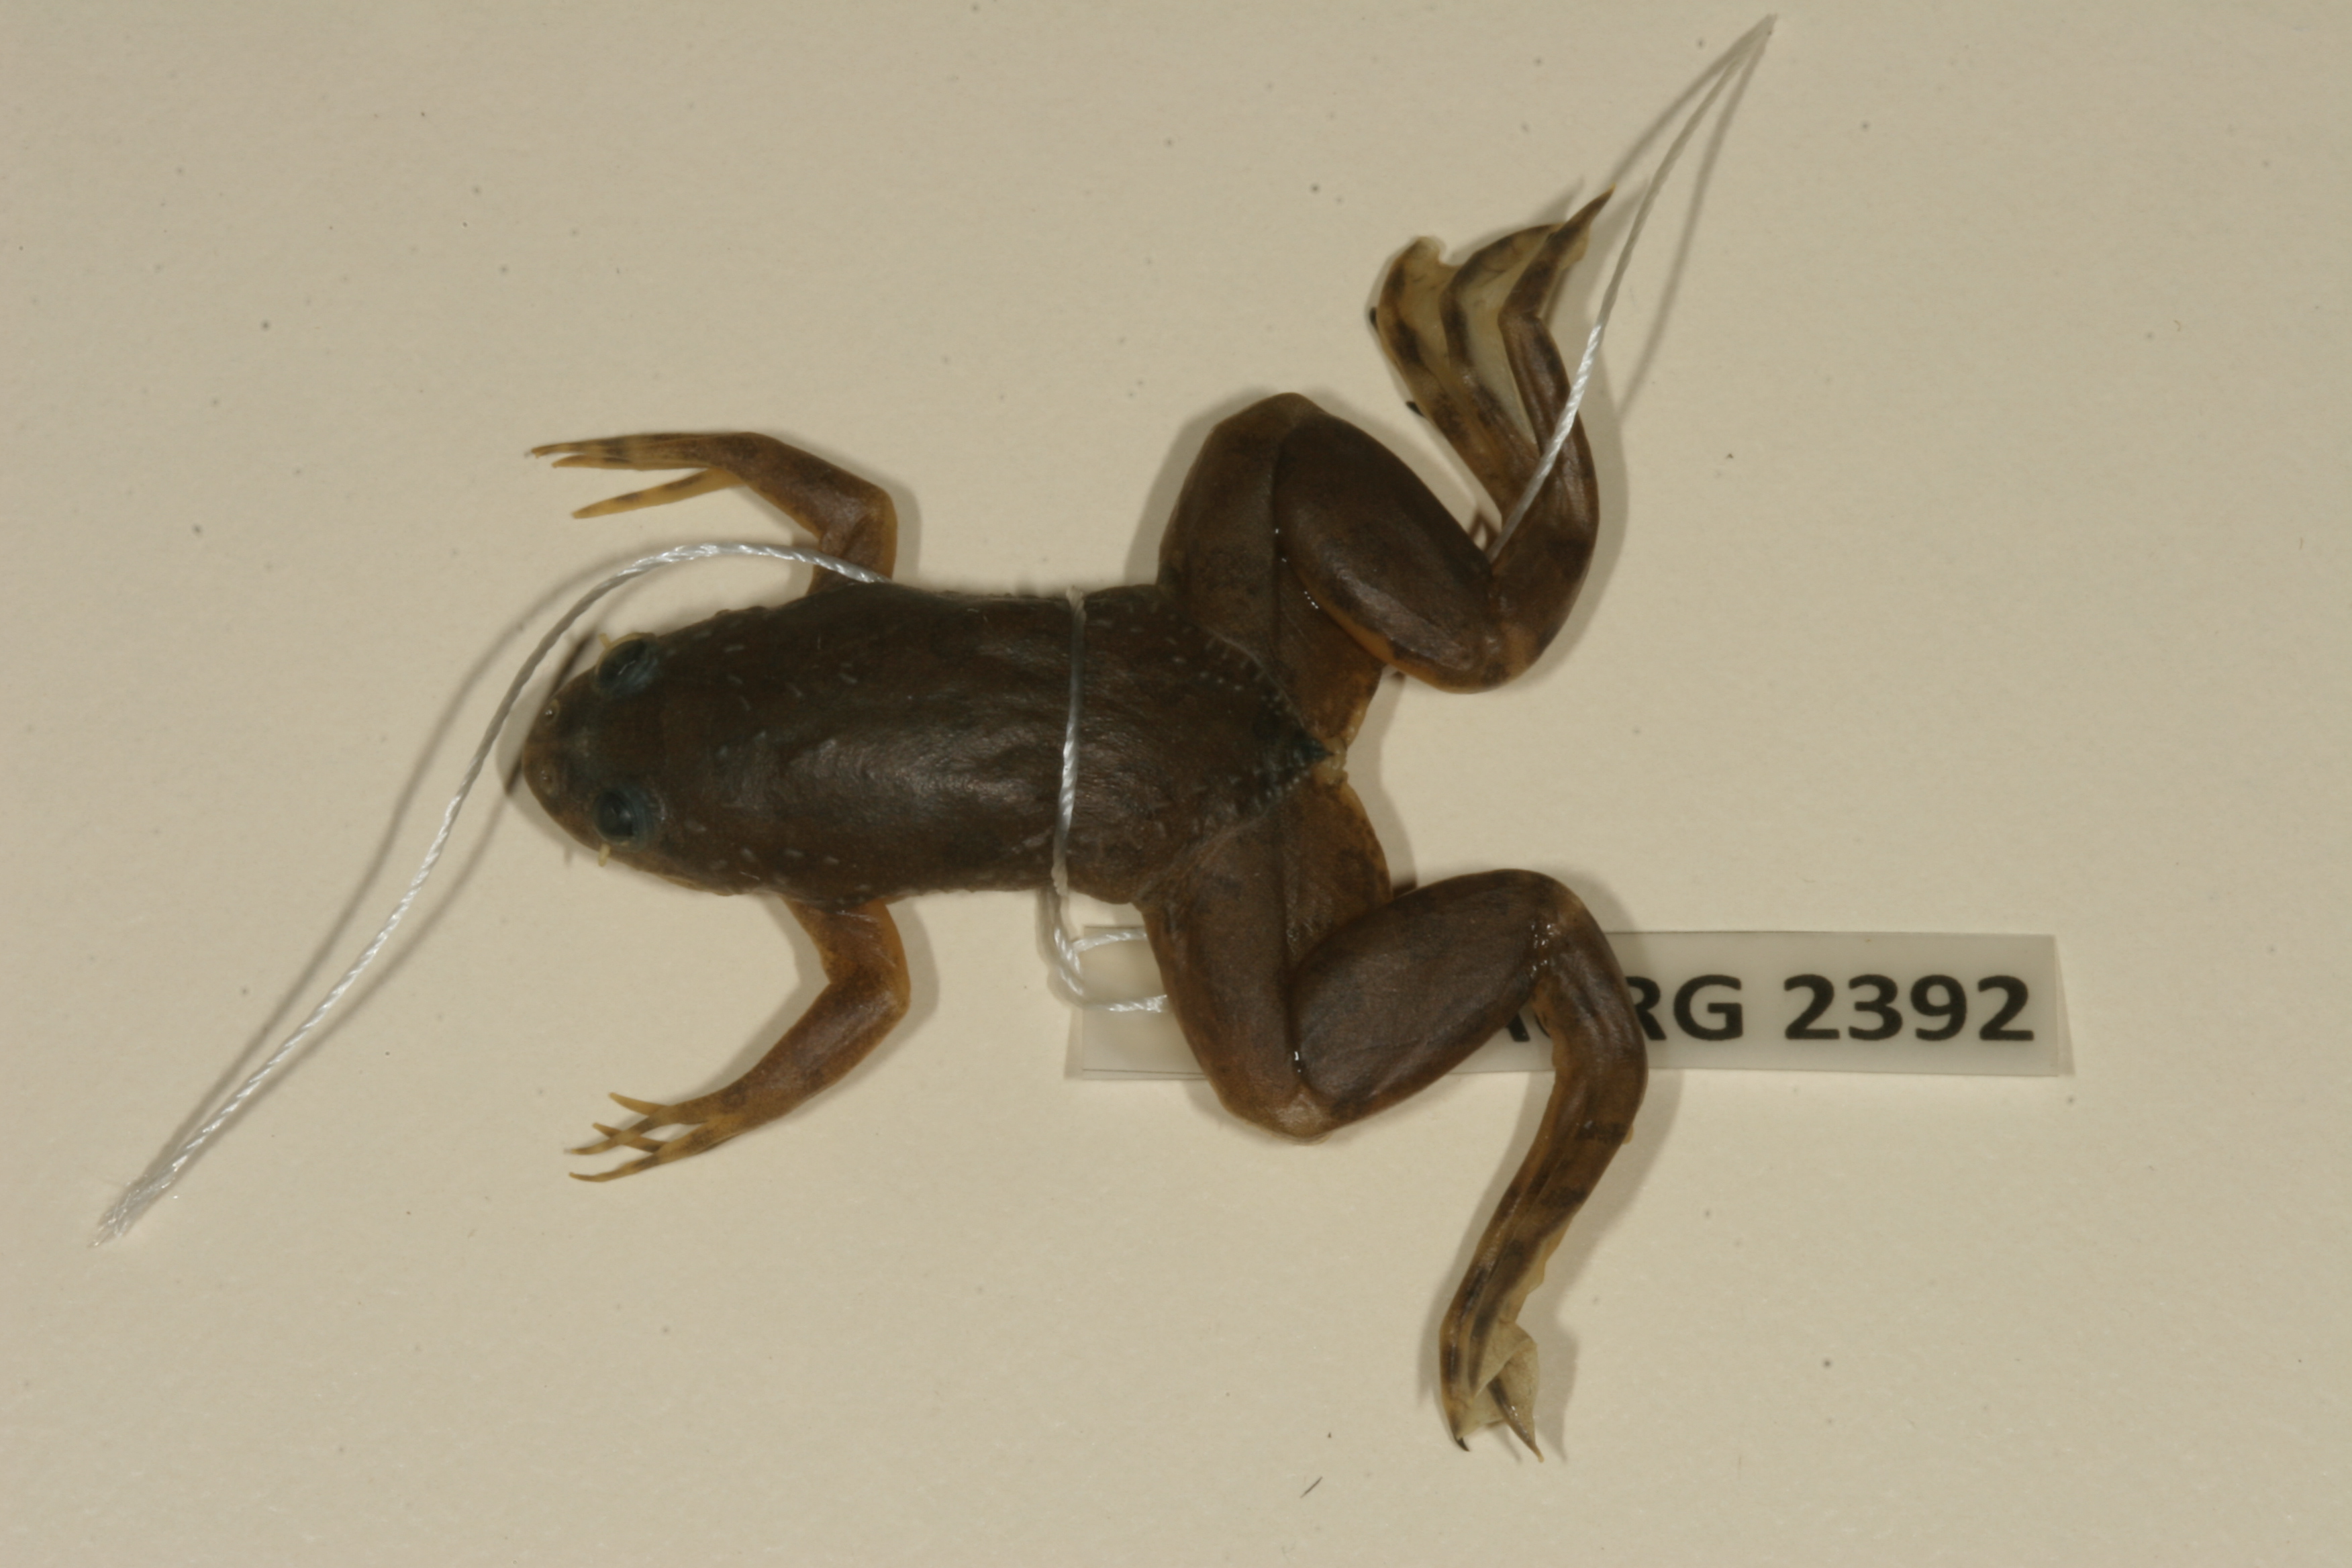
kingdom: Animalia
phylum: Chordata
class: Amphibia
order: Anura
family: Pipidae
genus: Xenopus
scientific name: Xenopus muelleri
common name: Muller's clawed frog
